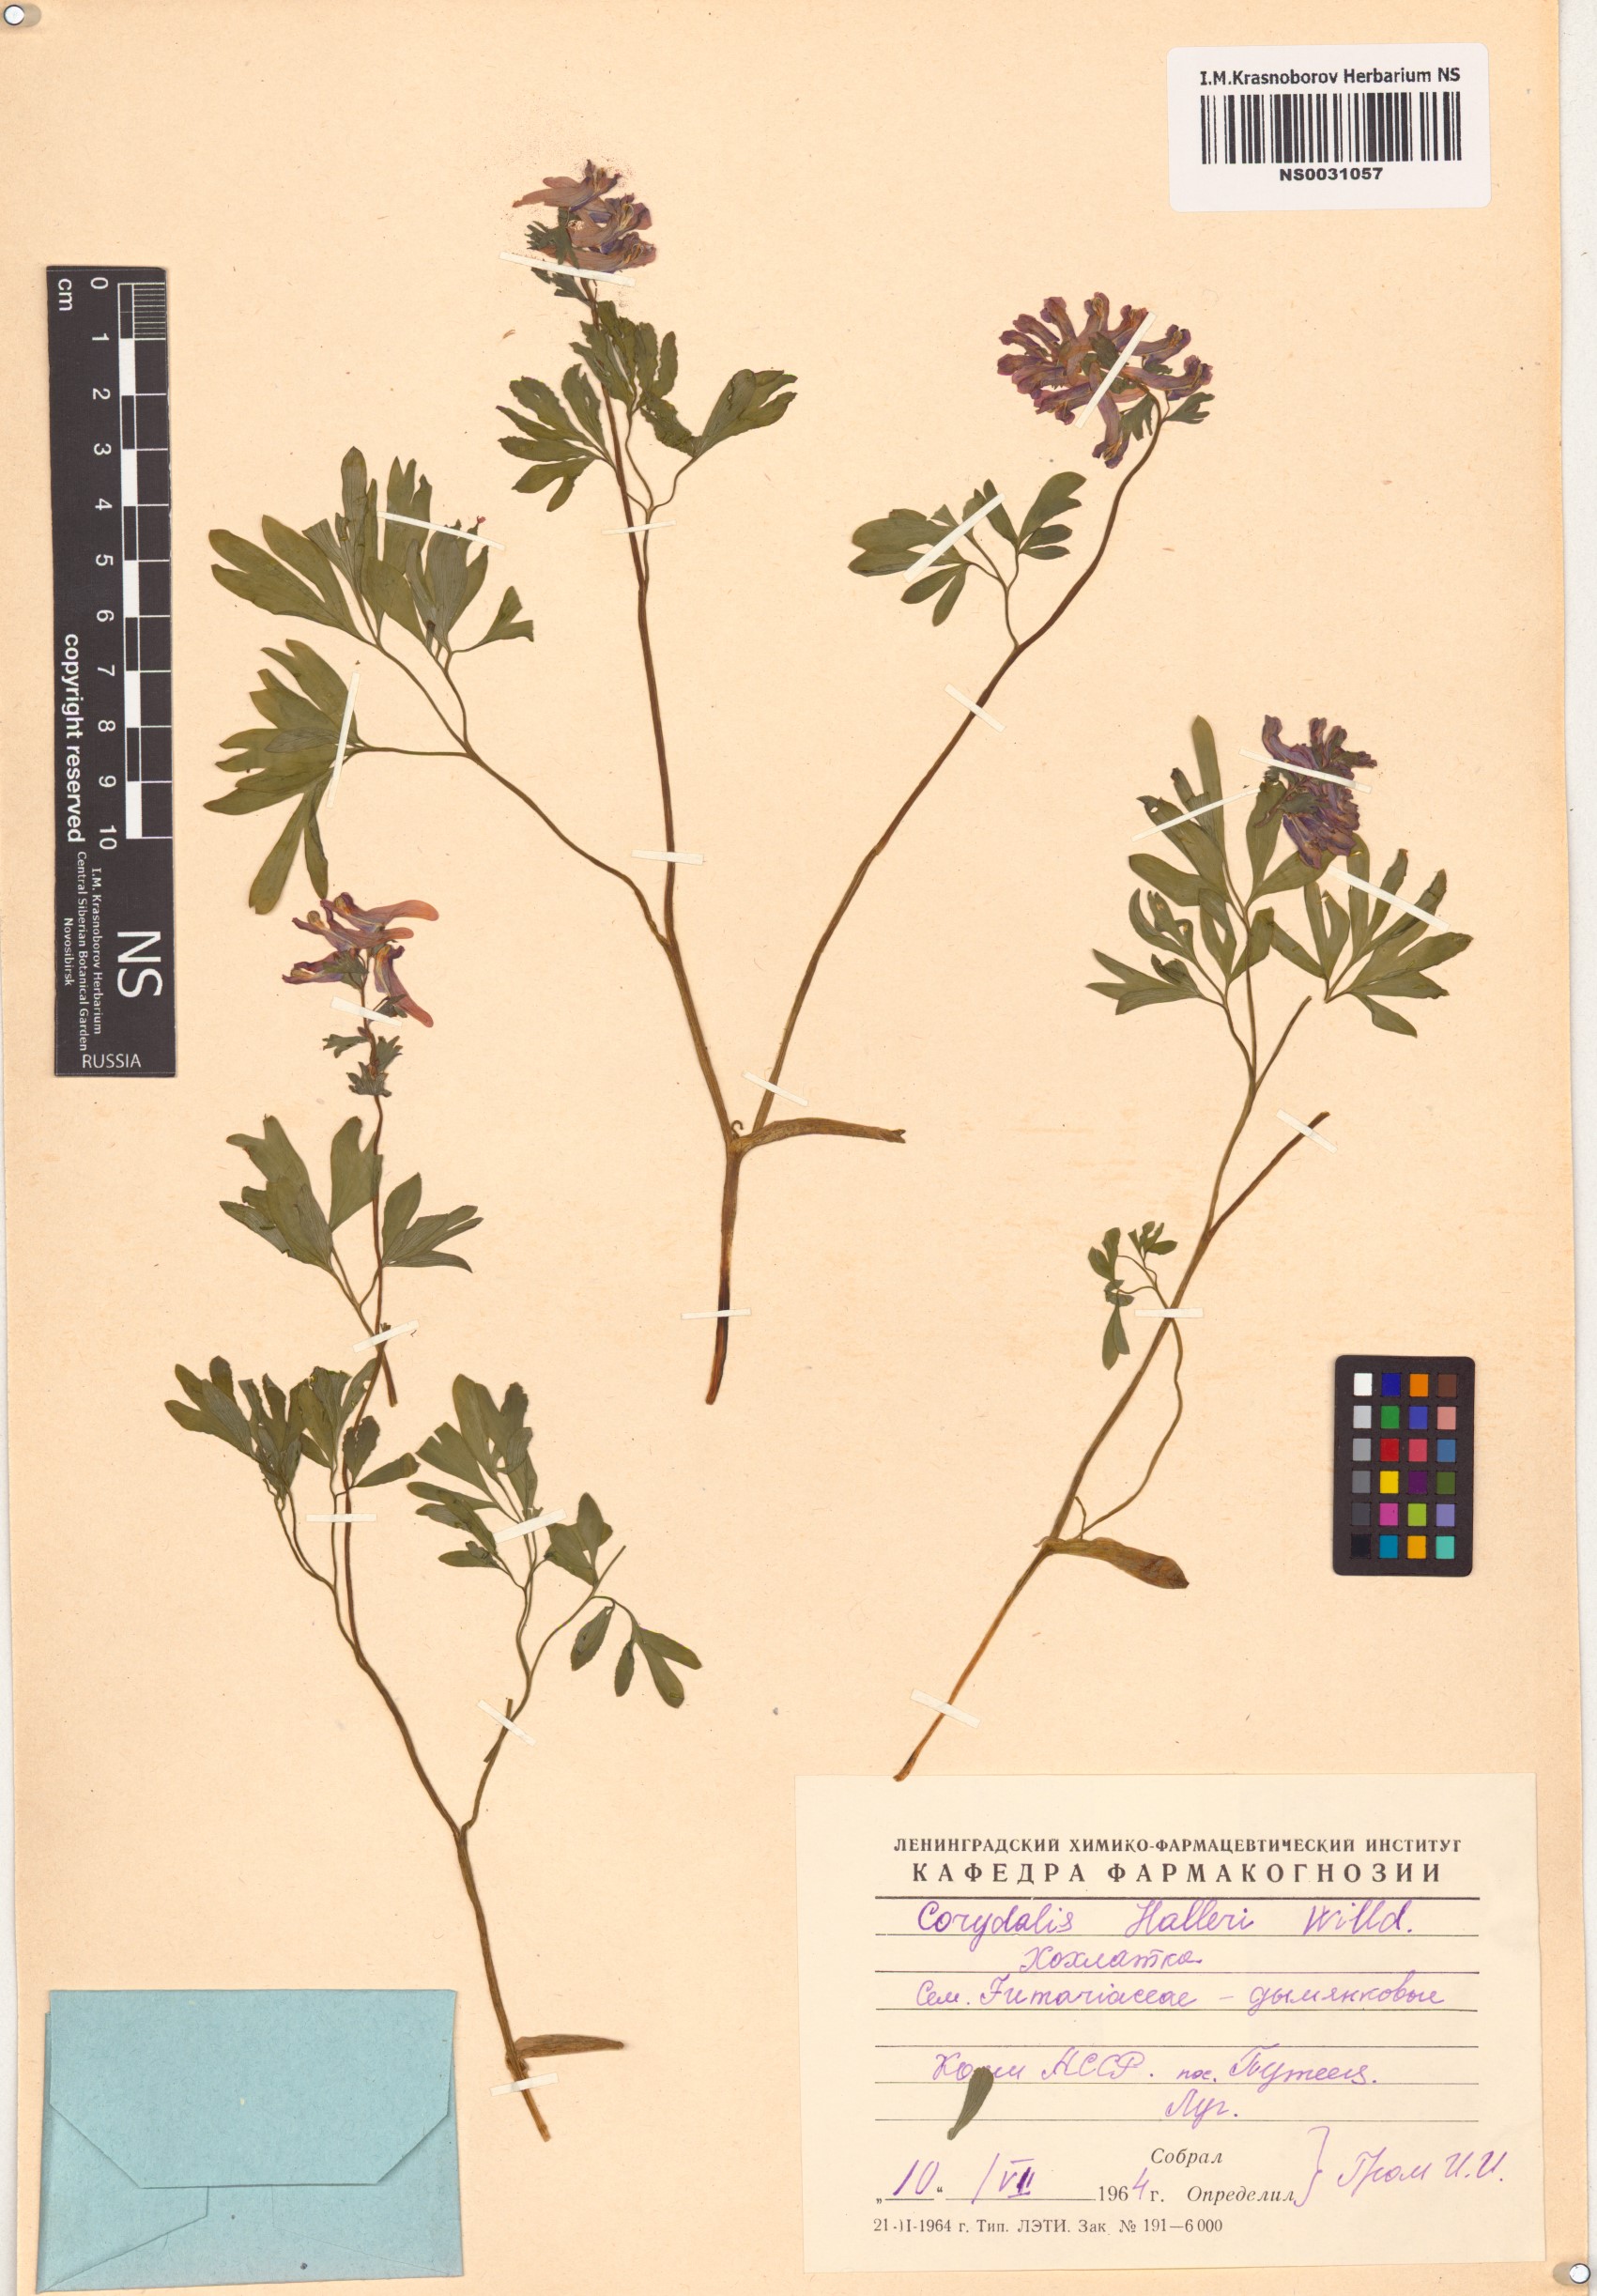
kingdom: Plantae
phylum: Tracheophyta
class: Magnoliopsida
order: Ranunculales
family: Papaveraceae
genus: Corydalis
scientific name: Corydalis solida
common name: Bird-in-a-bush
